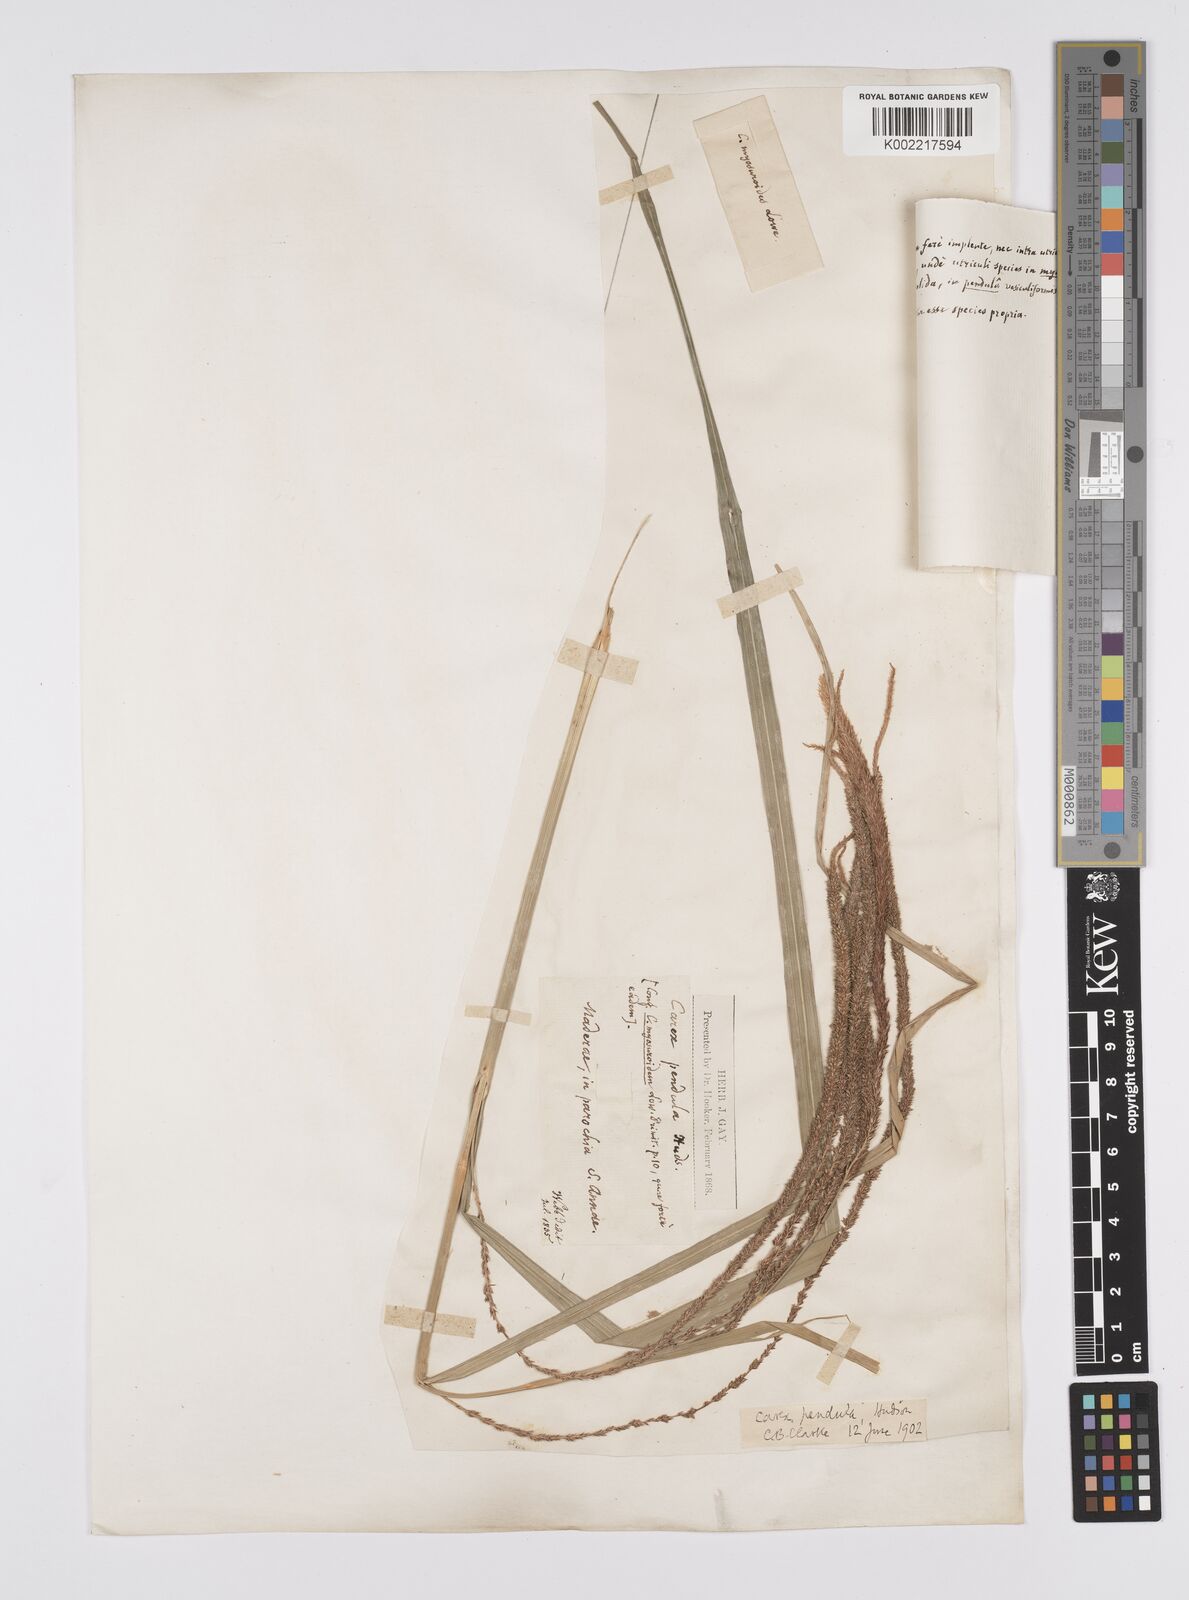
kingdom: Plantae
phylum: Tracheophyta
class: Liliopsida
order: Poales
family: Cyperaceae
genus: Carex
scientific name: Carex pendula
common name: Pendulous sedge
